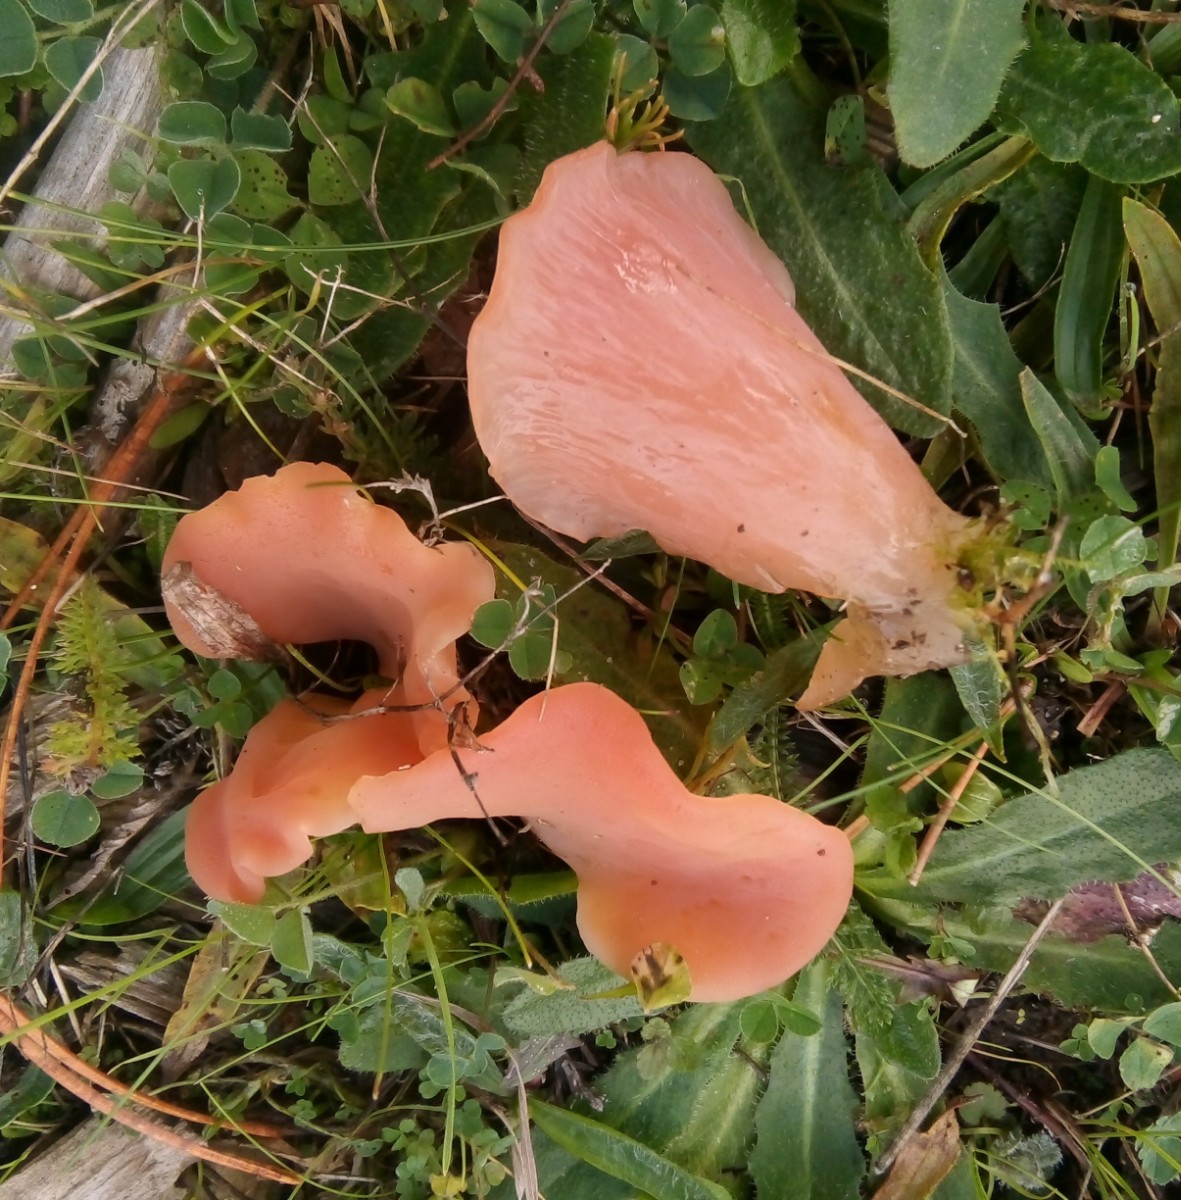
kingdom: Fungi
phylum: Basidiomycota
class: Agaricomycetes
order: Auriculariales
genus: Guepinia
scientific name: Guepinia helvelloides
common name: bævretunge
